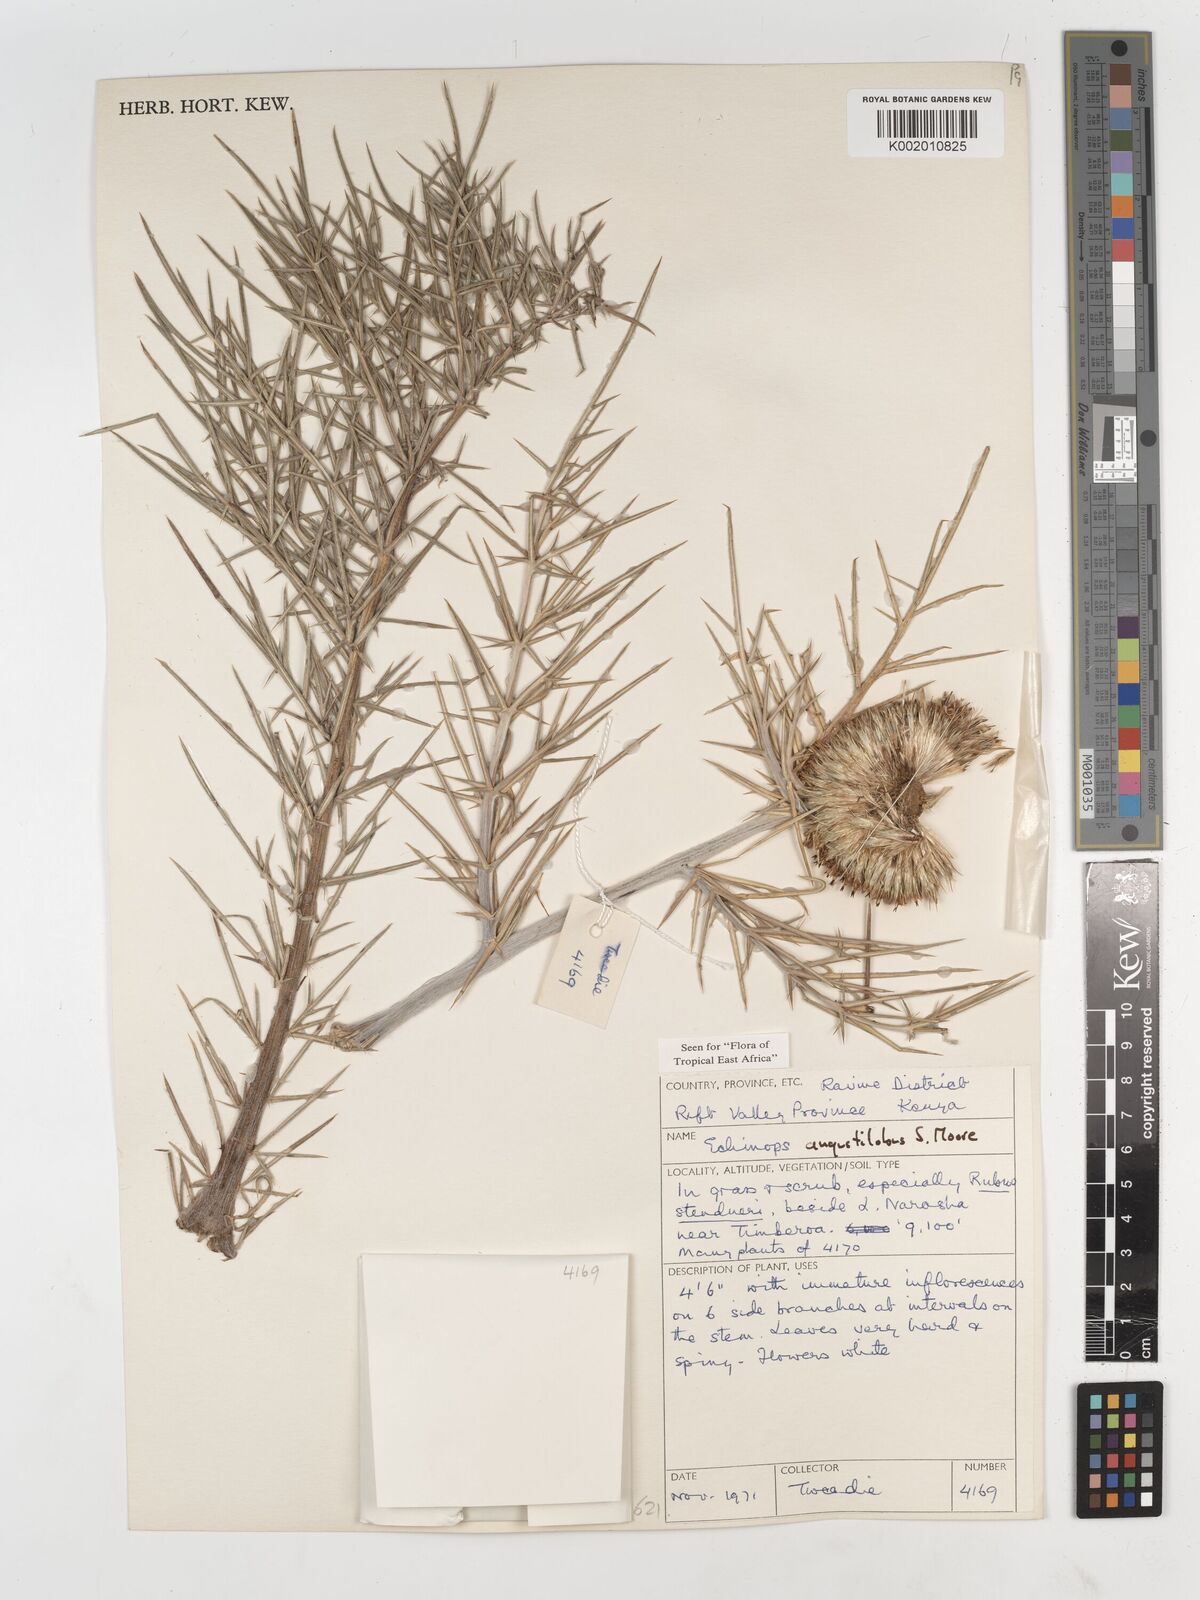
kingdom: Plantae
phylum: Tracheophyta
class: Magnoliopsida
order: Asterales
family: Asteraceae
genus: Echinops
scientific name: Echinops angustilobus
